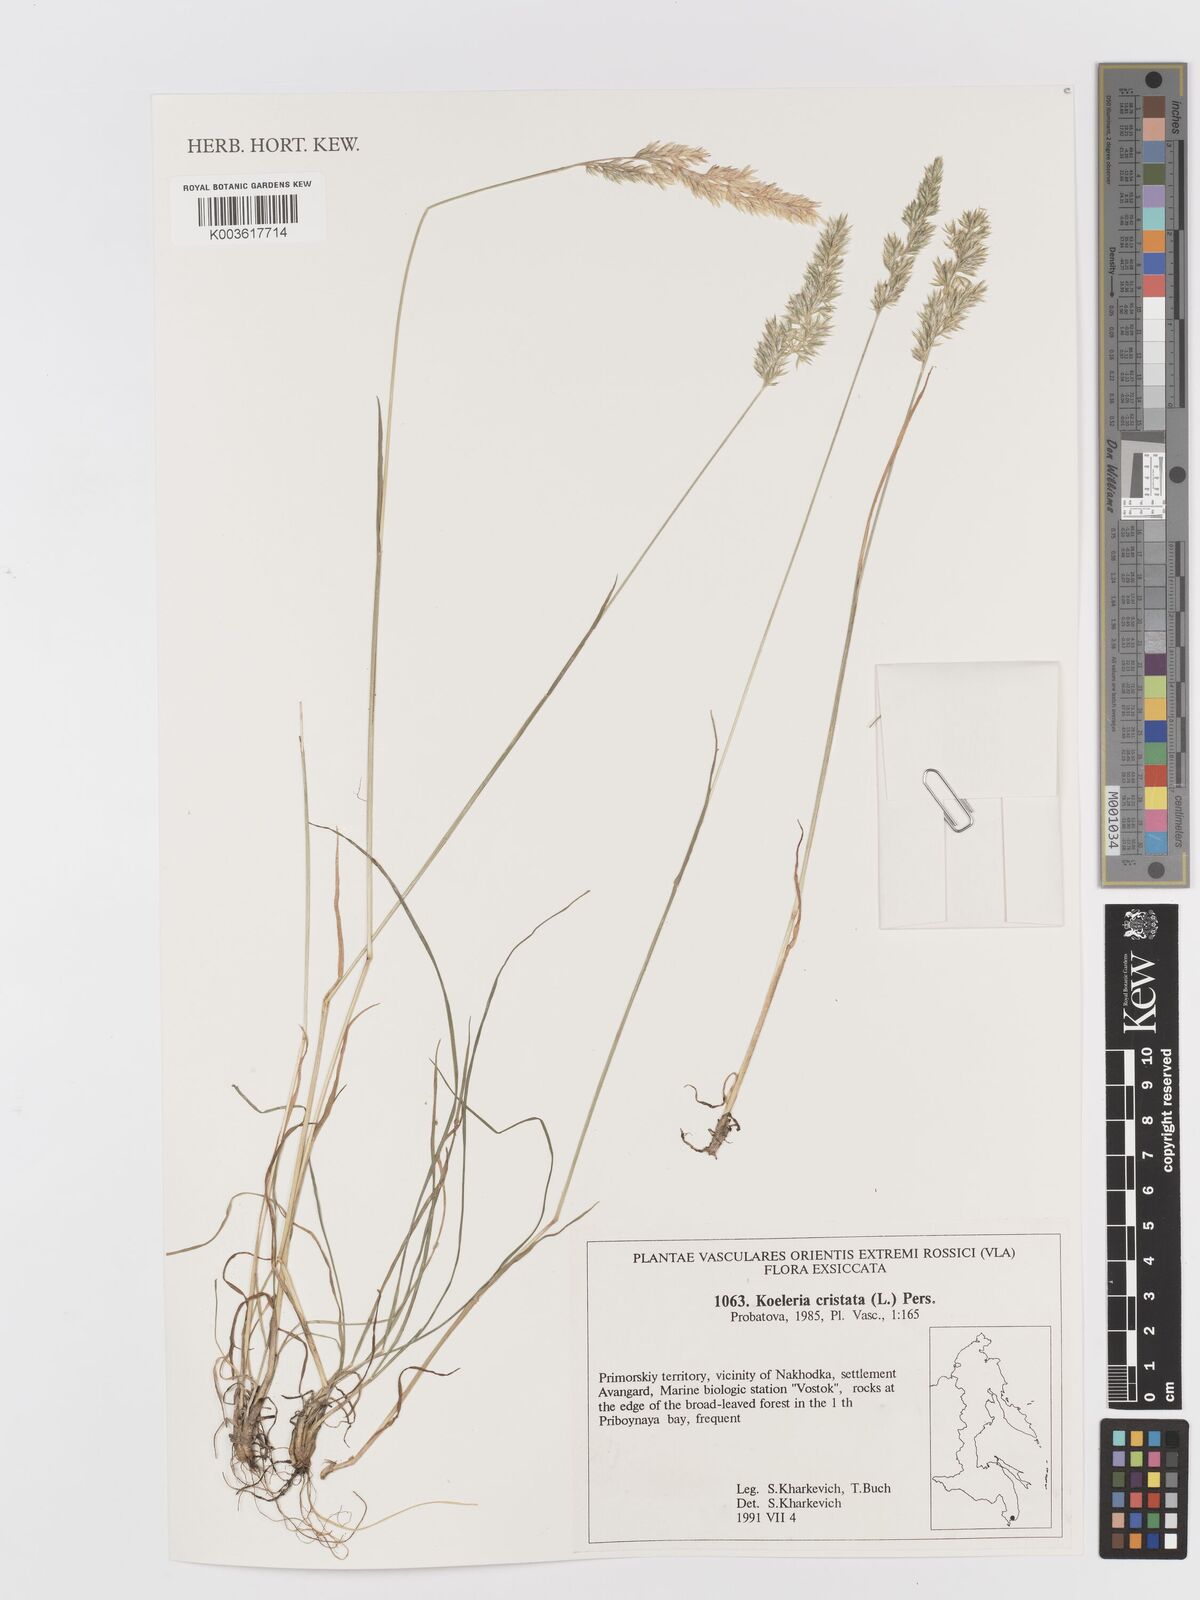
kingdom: Plantae
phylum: Tracheophyta
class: Liliopsida
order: Poales
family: Poaceae
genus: Koeleria
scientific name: Koeleria macrantha
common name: Crested hair-grass
